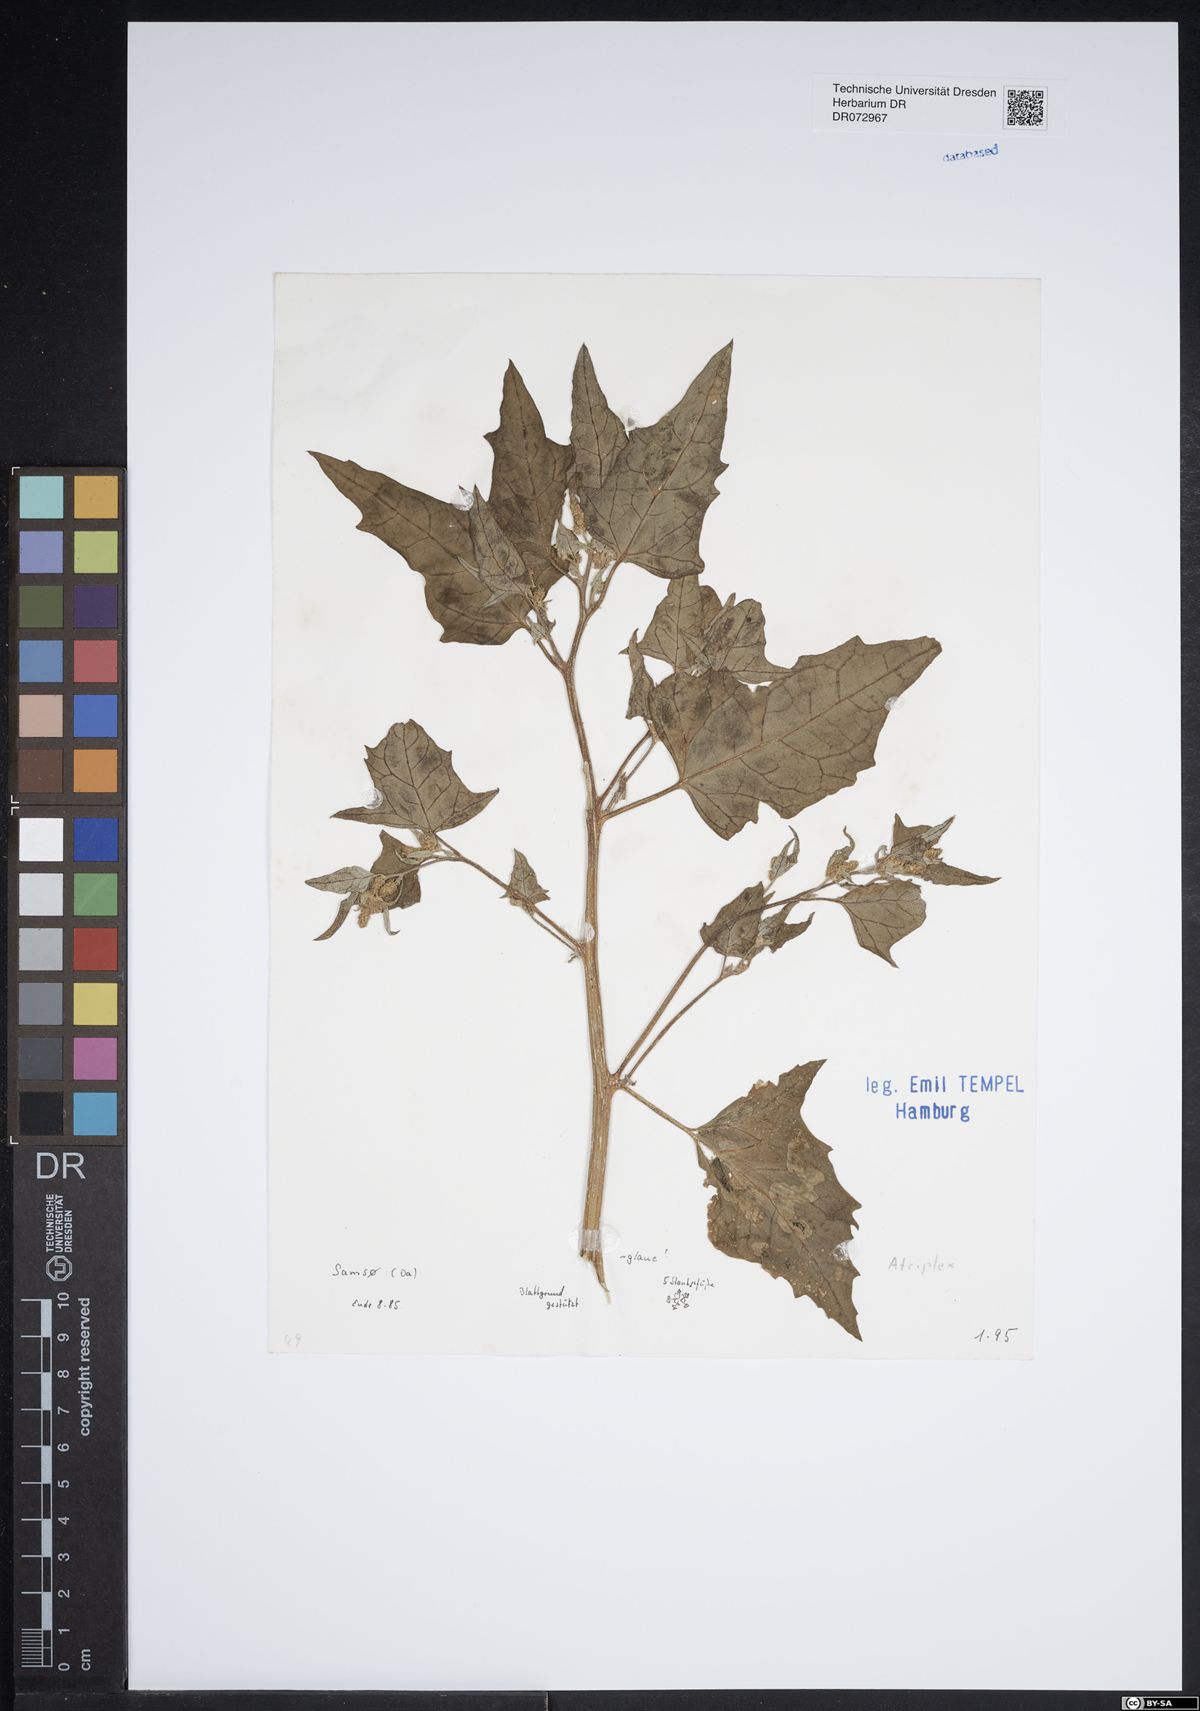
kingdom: Plantae
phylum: Tracheophyta
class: Magnoliopsida
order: Caryophyllales
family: Amaranthaceae
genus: Atriplex
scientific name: Atriplex
